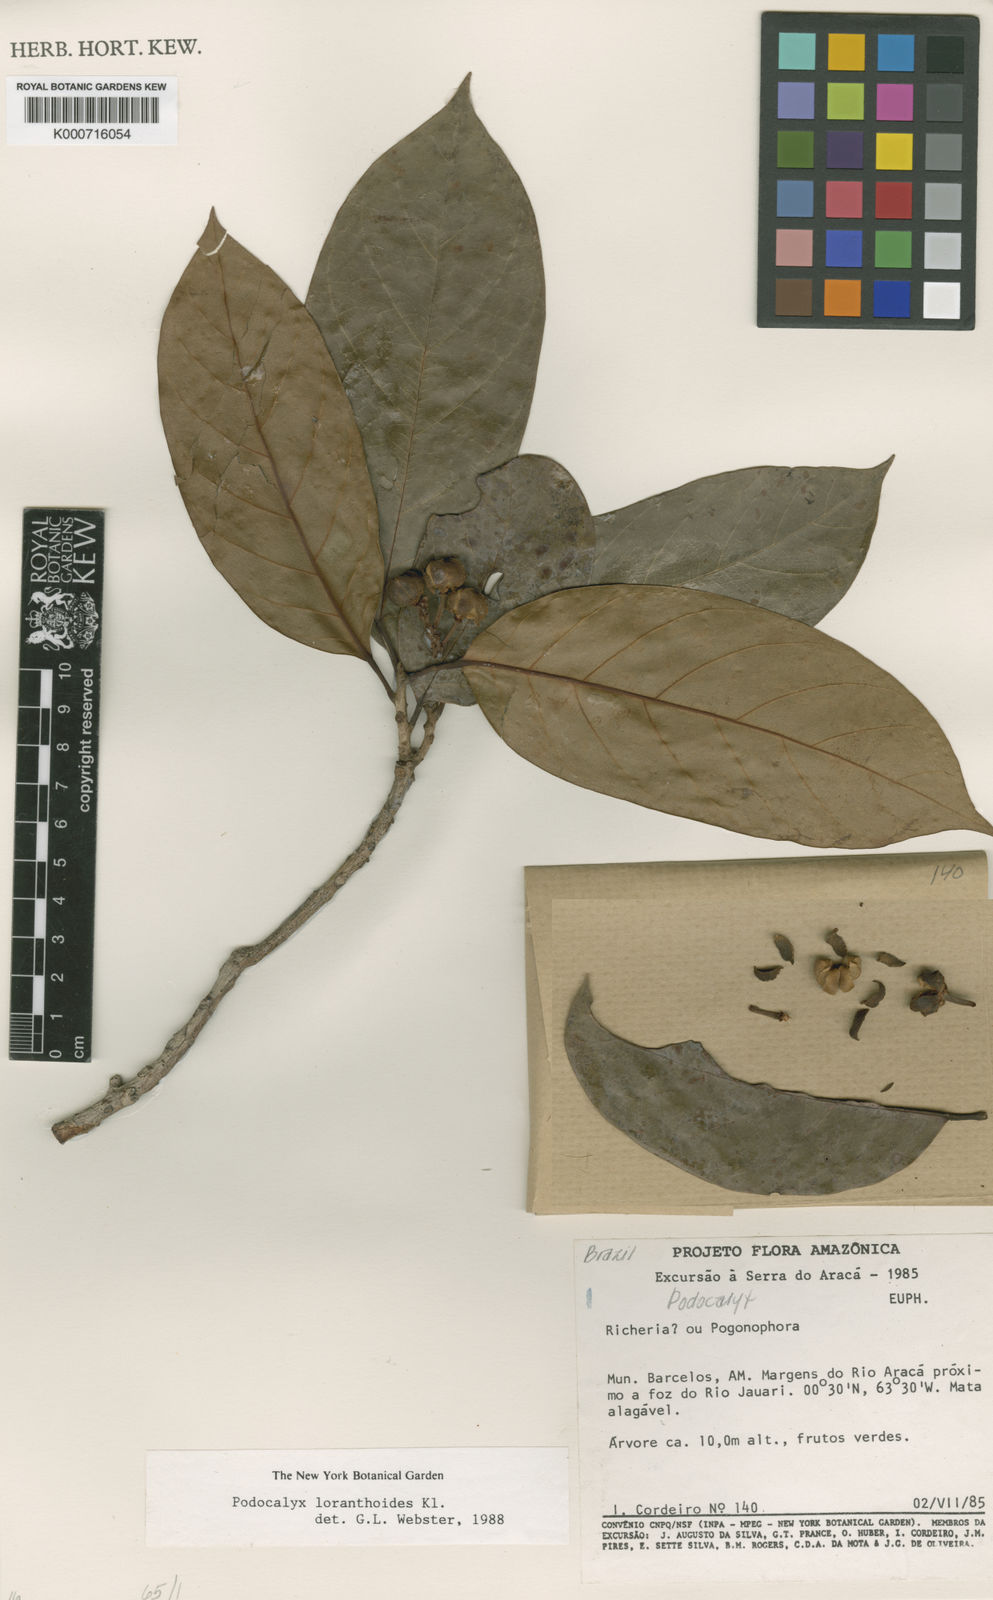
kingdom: Plantae
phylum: Tracheophyta
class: Magnoliopsida
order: Malpighiales
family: Picrodendraceae
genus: Podocalyx
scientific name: Podocalyx loranthoides
